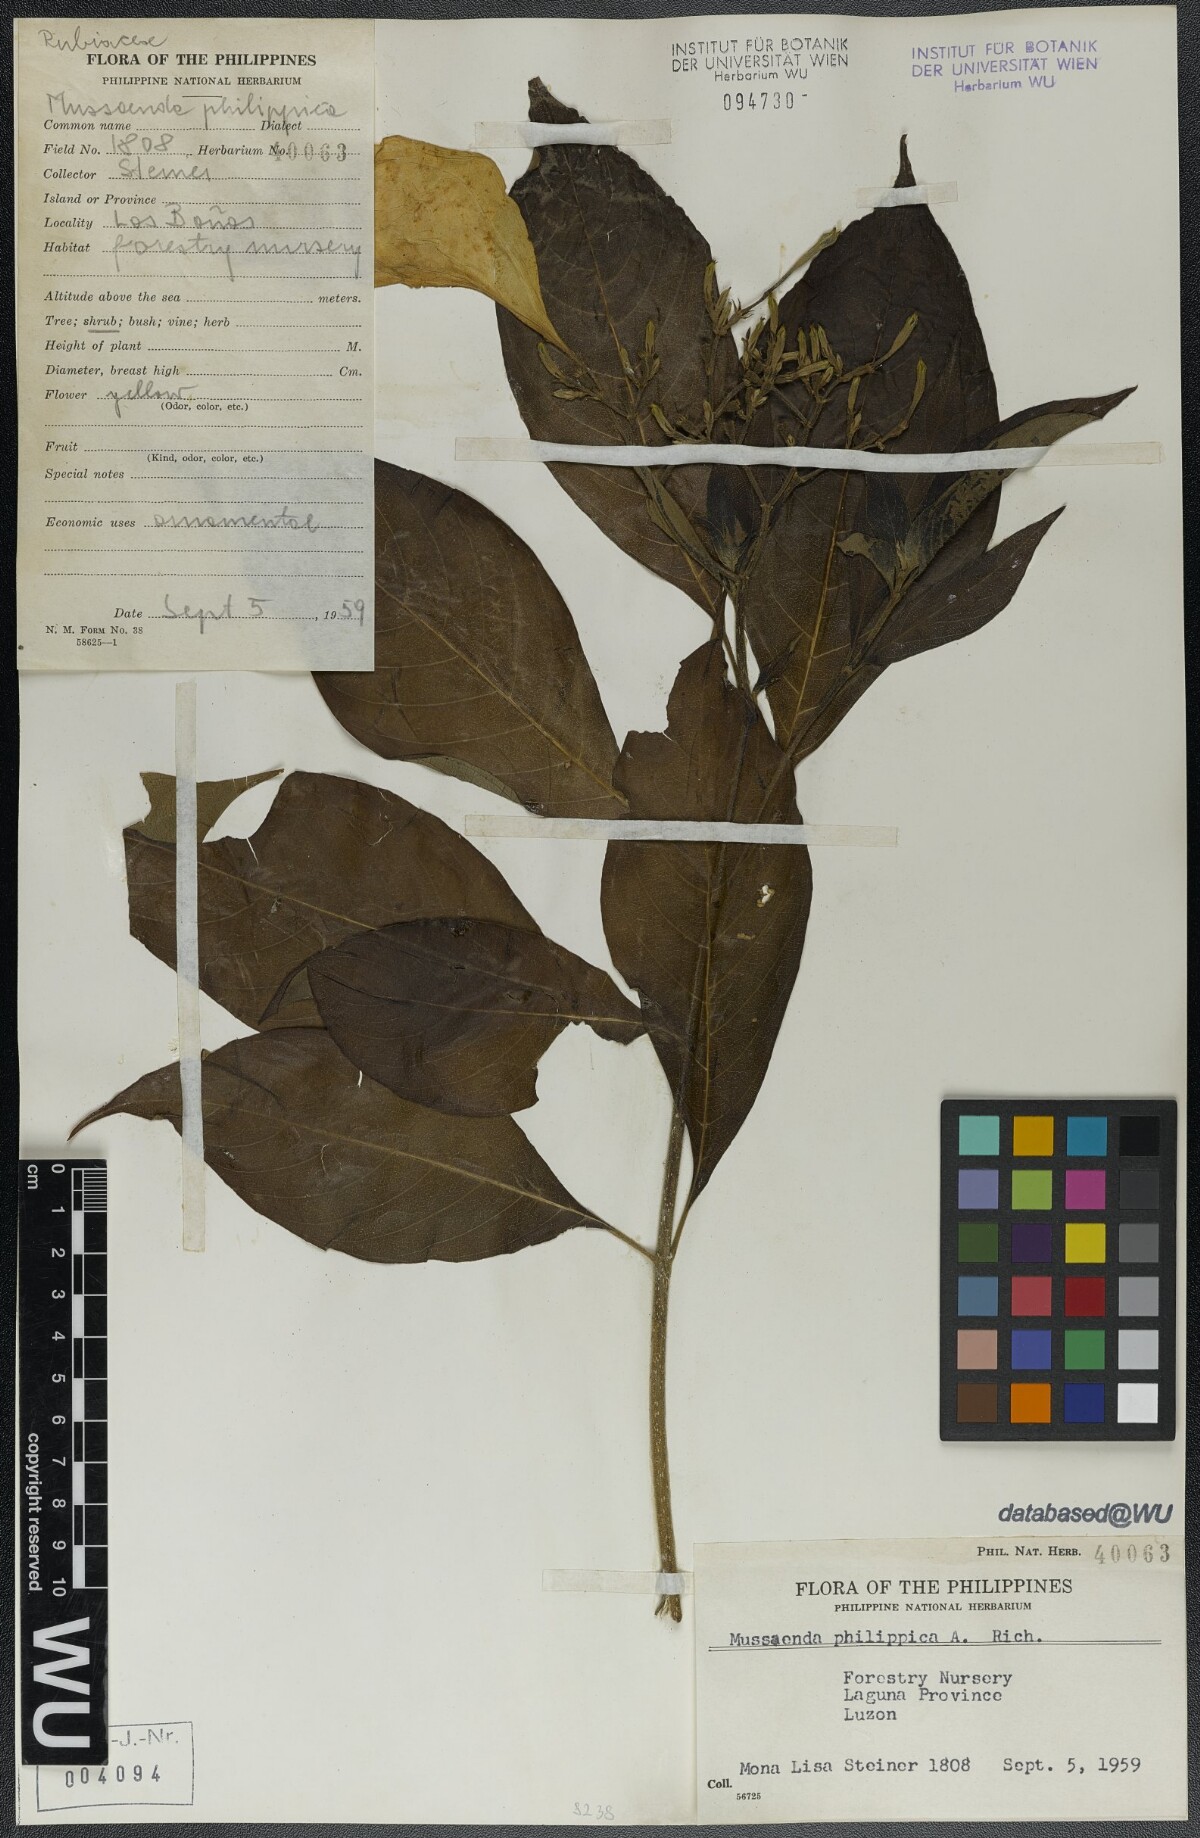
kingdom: Plantae
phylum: Tracheophyta
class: Magnoliopsida
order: Gentianales
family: Rubiaceae
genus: Mussaenda
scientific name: Mussaenda philippica
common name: Philippine mussaenda
